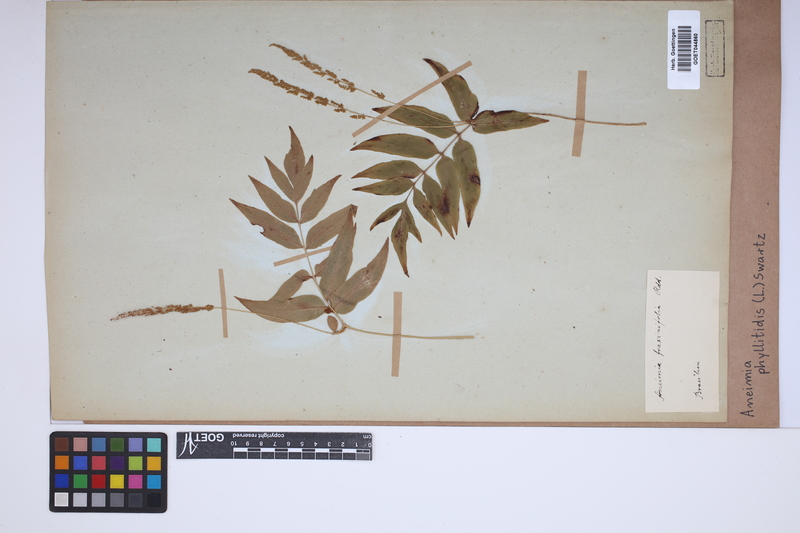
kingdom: Plantae
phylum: Tracheophyta
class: Polypodiopsida
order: Schizaeales
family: Anemiaceae
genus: Anemia
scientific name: Anemia phyllitidis
